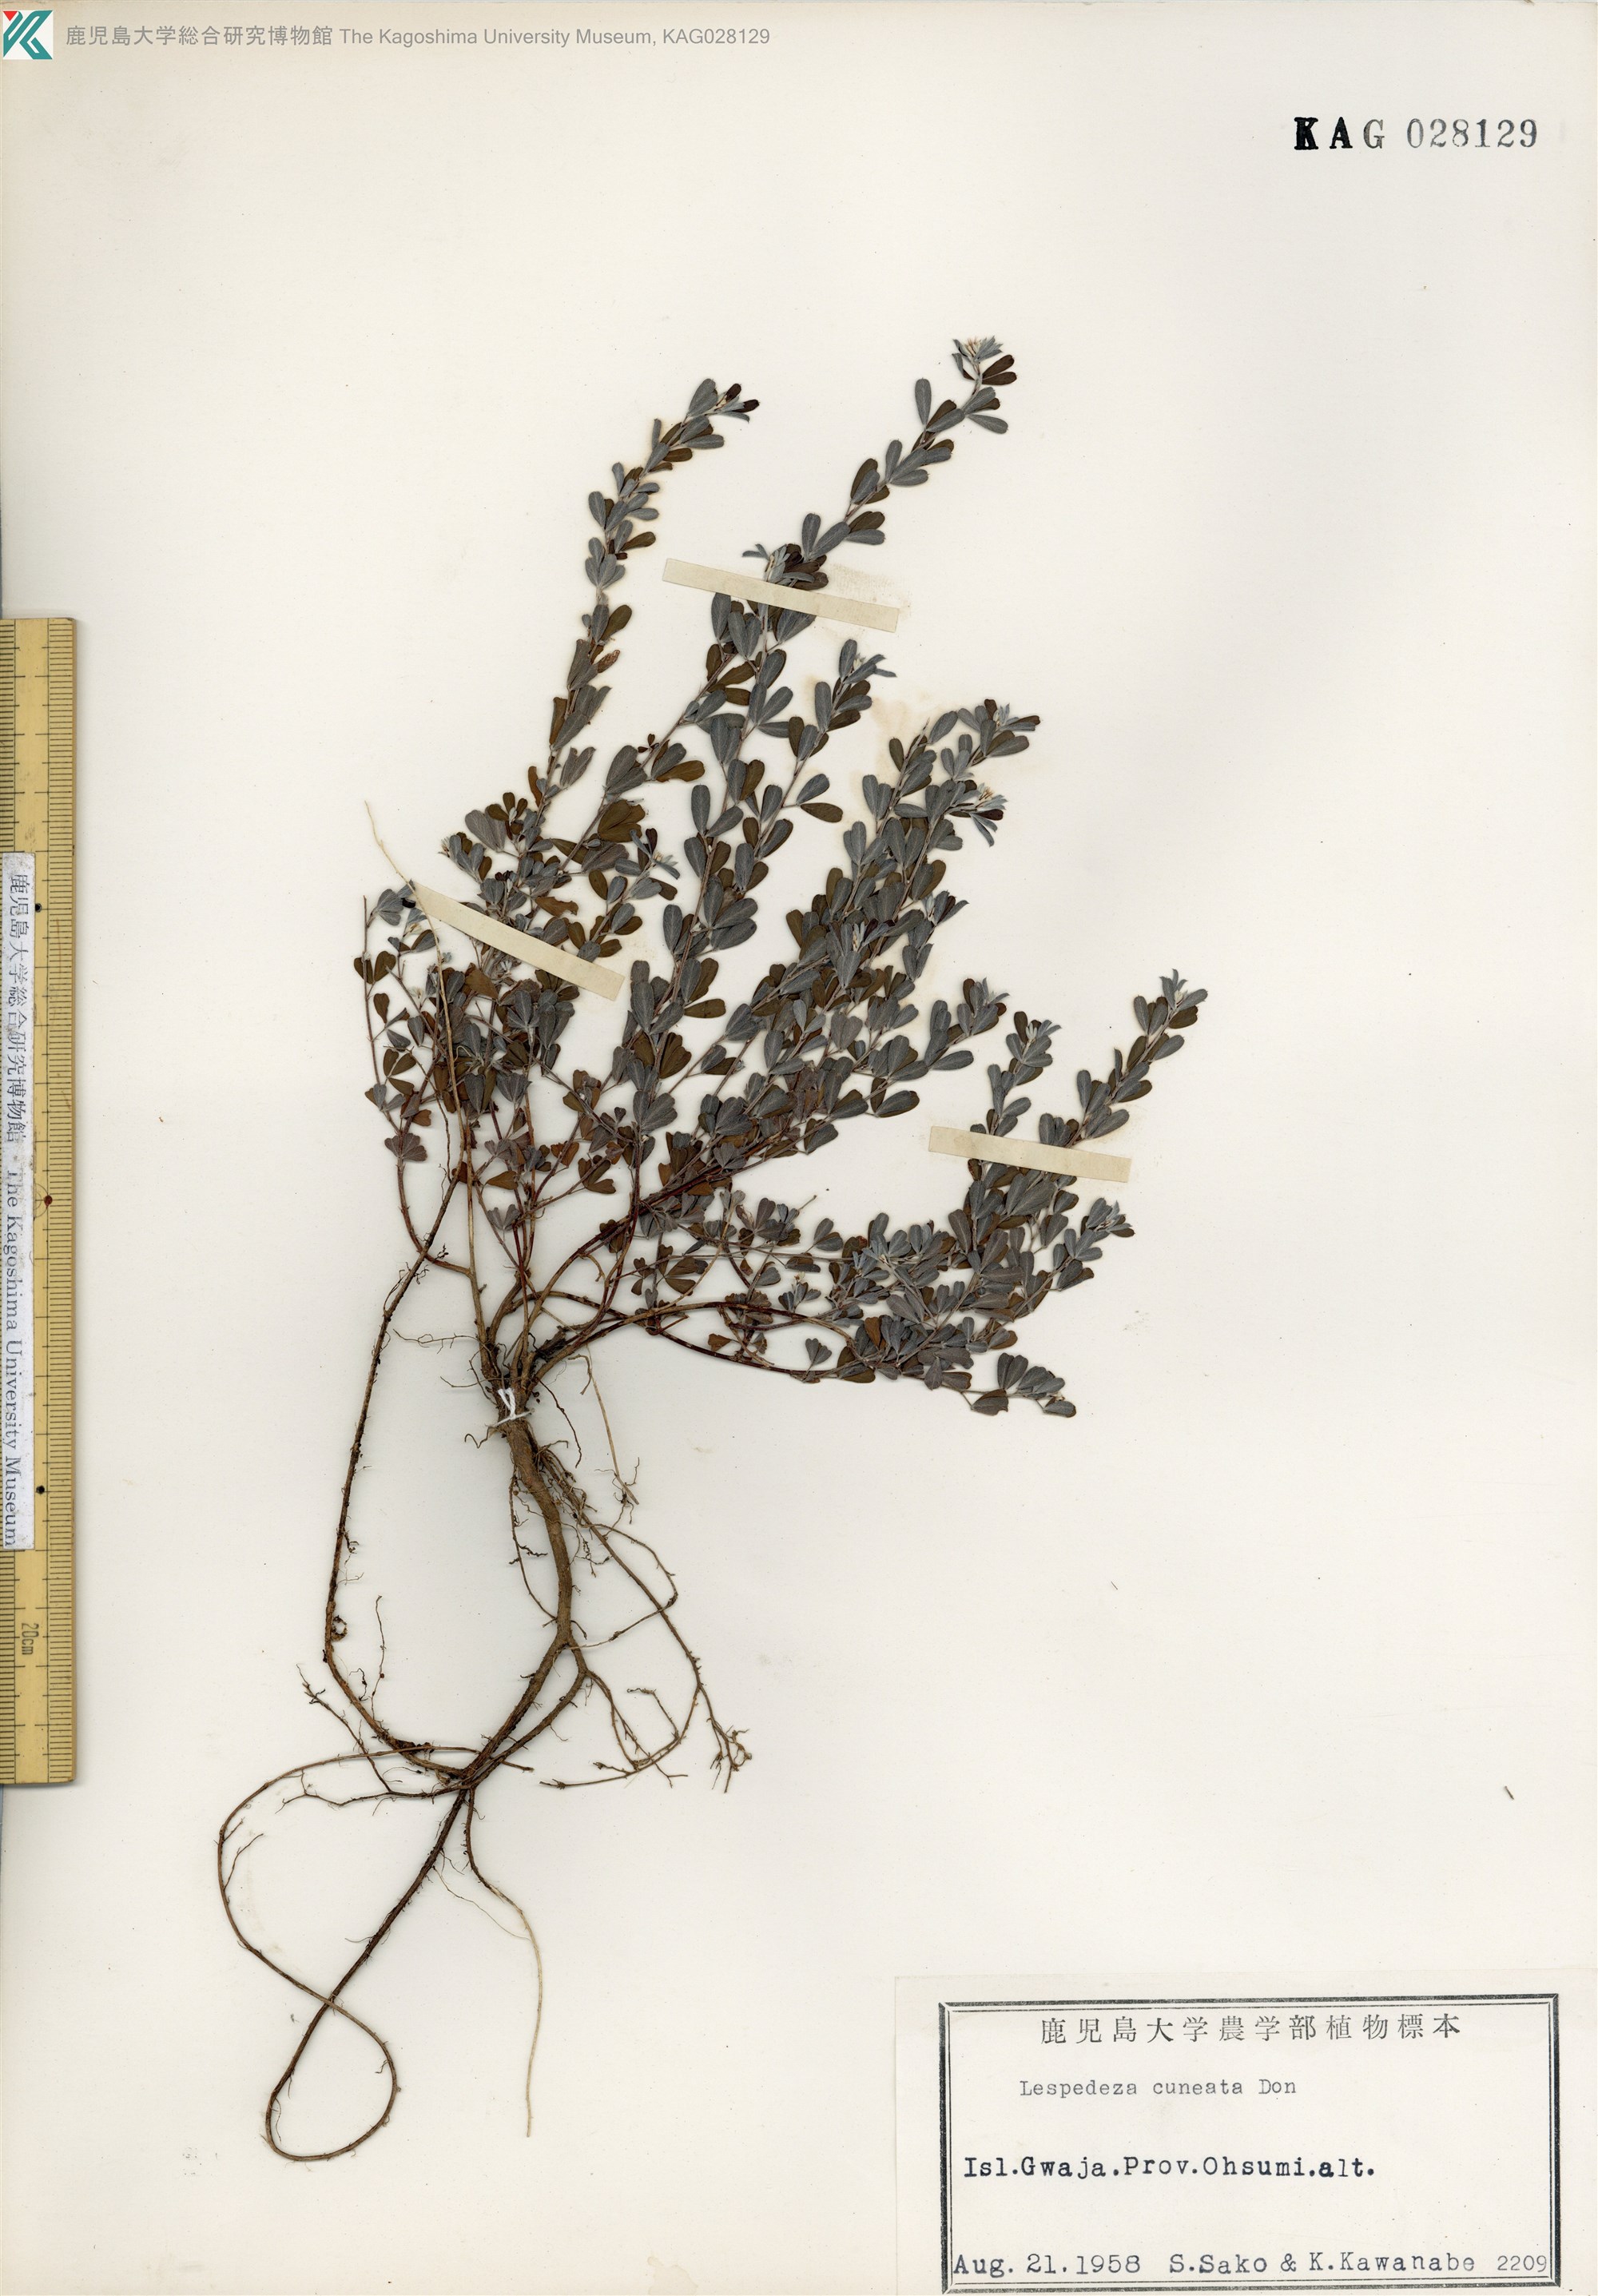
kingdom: Plantae
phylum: Tracheophyta
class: Magnoliopsida
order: Fabales
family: Fabaceae
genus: Lespedeza
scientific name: Lespedeza cuneata
